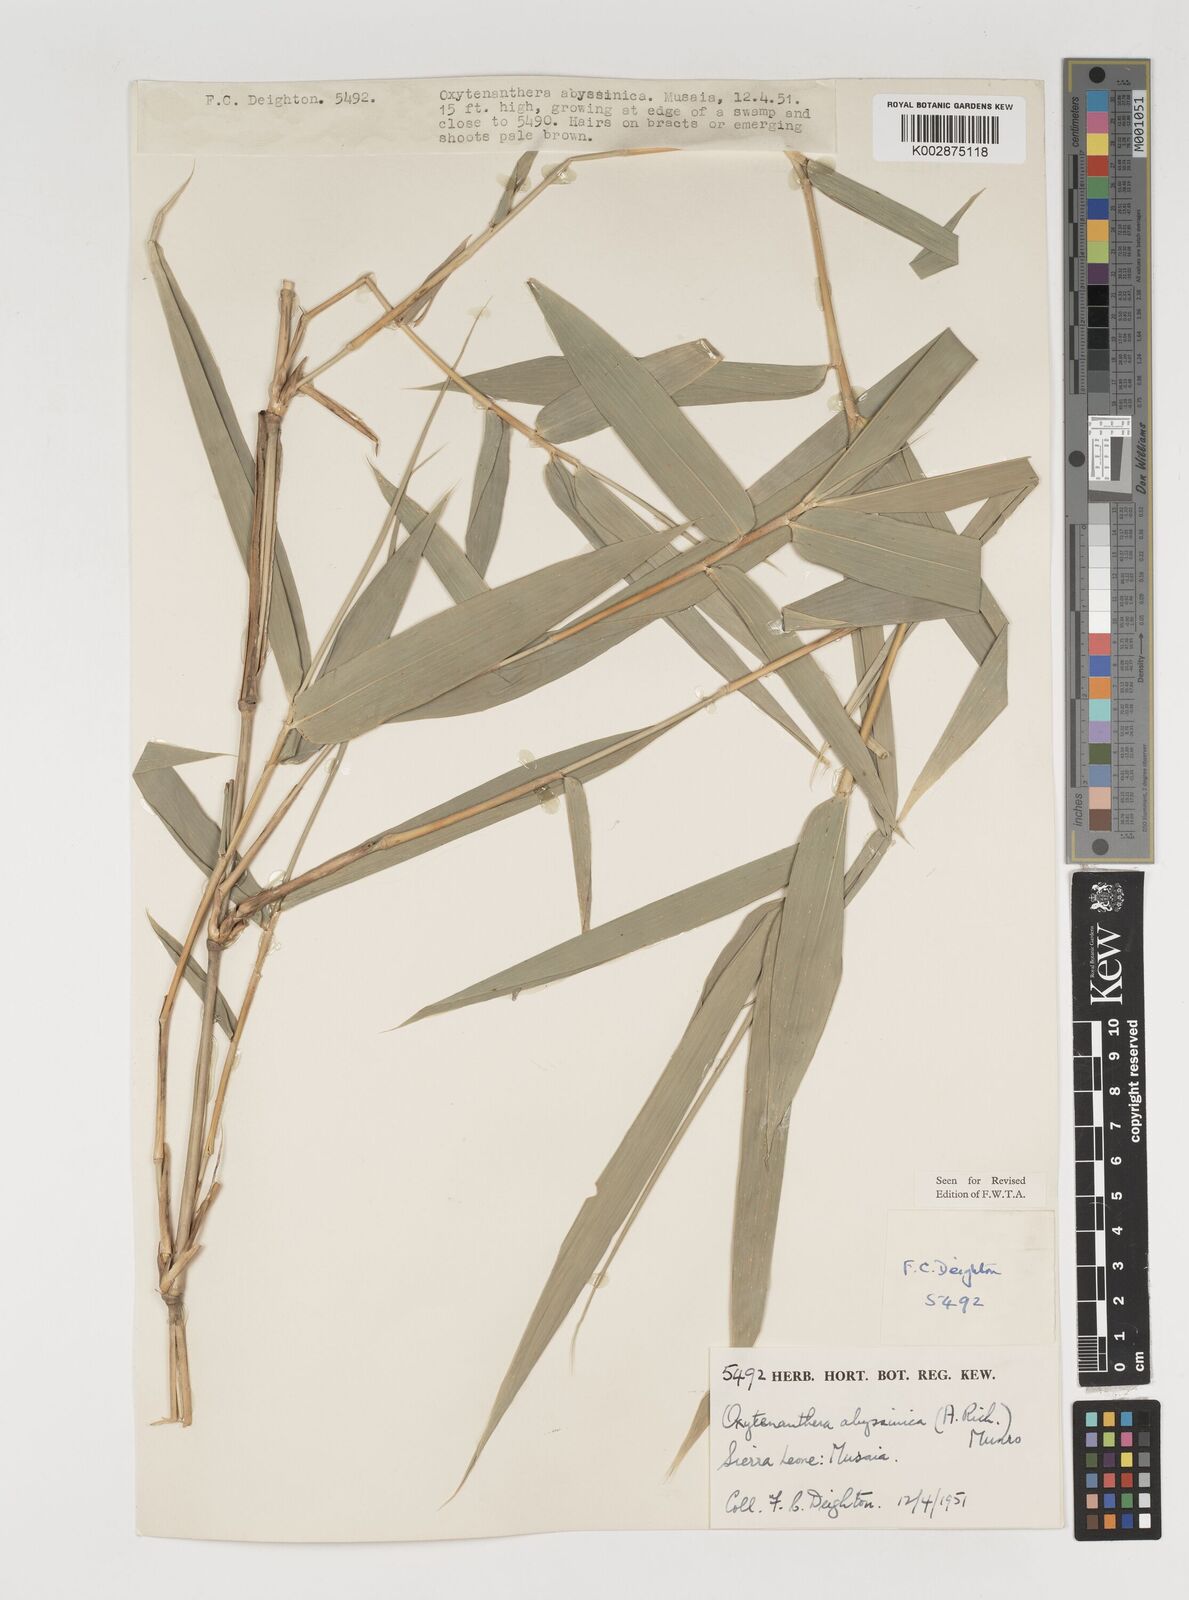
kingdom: Plantae
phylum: Tracheophyta
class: Liliopsida
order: Poales
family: Poaceae
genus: Oxytenanthera
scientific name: Oxytenanthera abyssinica
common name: Wine bamboo
